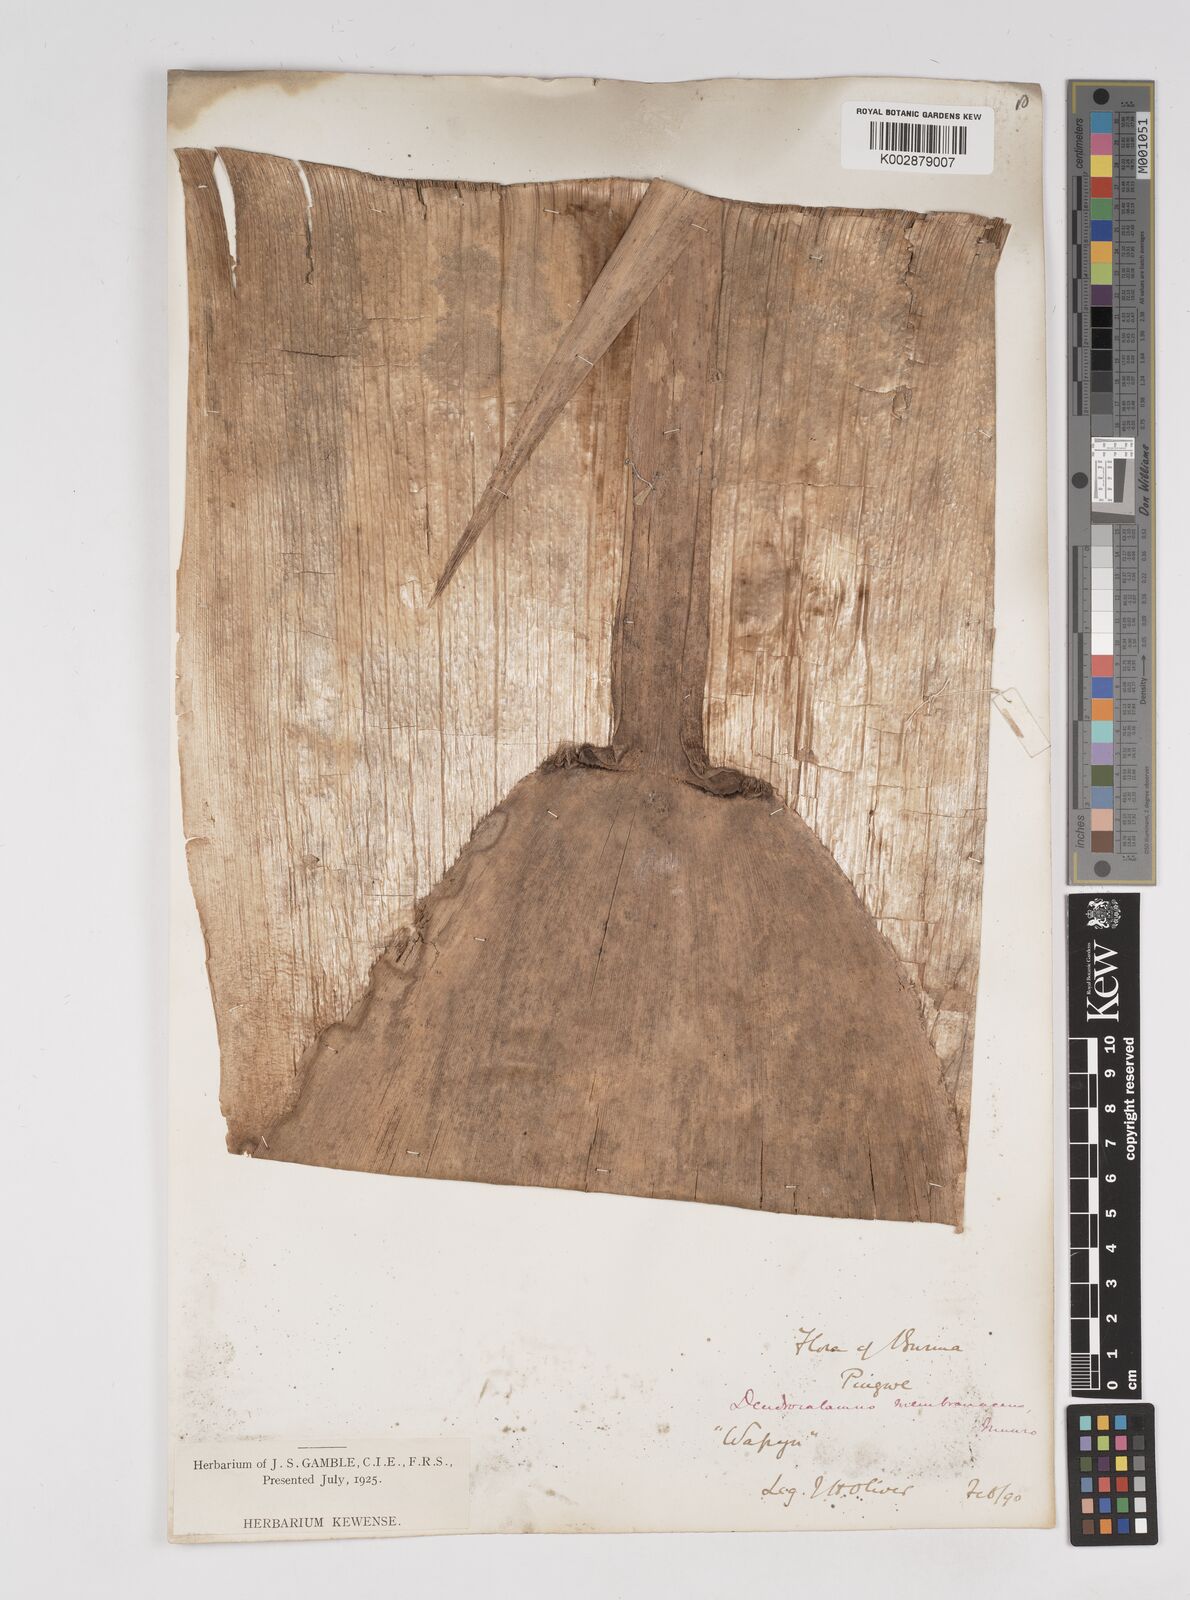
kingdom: Plantae
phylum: Tracheophyta
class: Liliopsida
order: Poales
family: Poaceae
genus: Dendrocalamus
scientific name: Dendrocalamus membranaceus
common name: White bamboo
